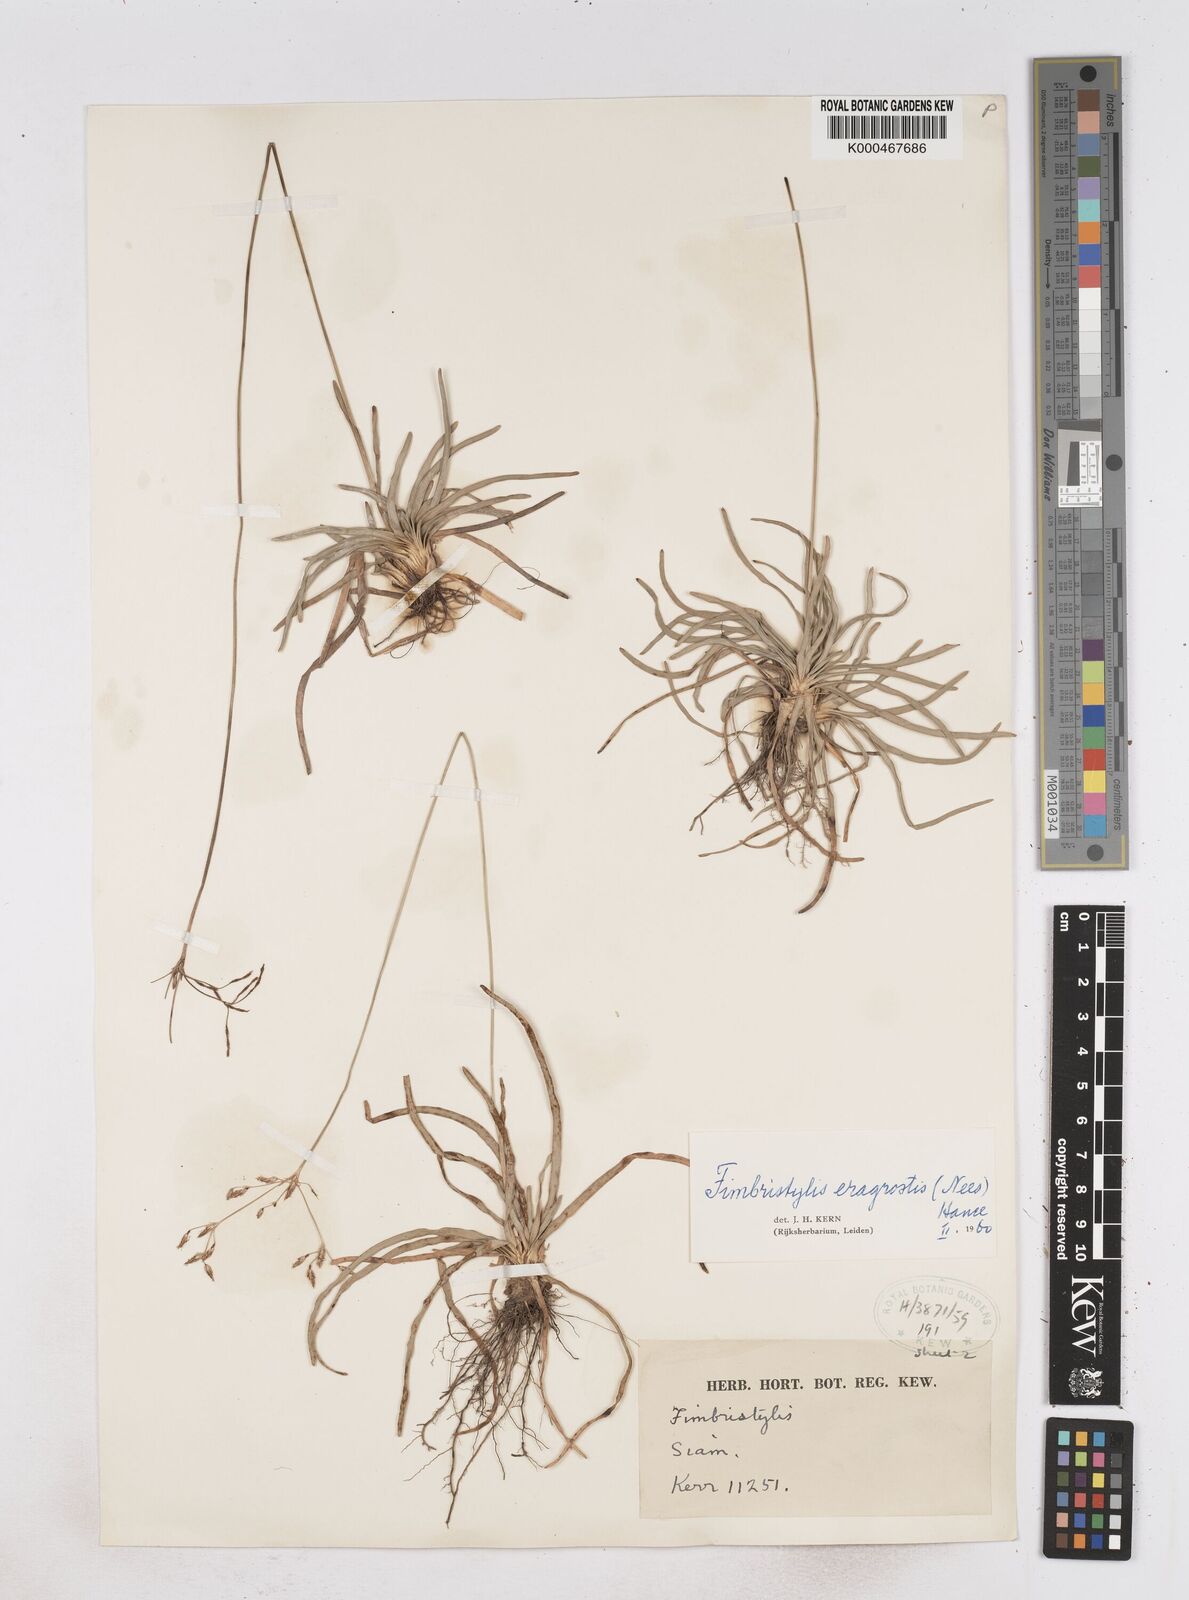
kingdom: Plantae
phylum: Tracheophyta
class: Liliopsida
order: Poales
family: Cyperaceae
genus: Fimbristylis
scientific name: Fimbristylis eragrostis
